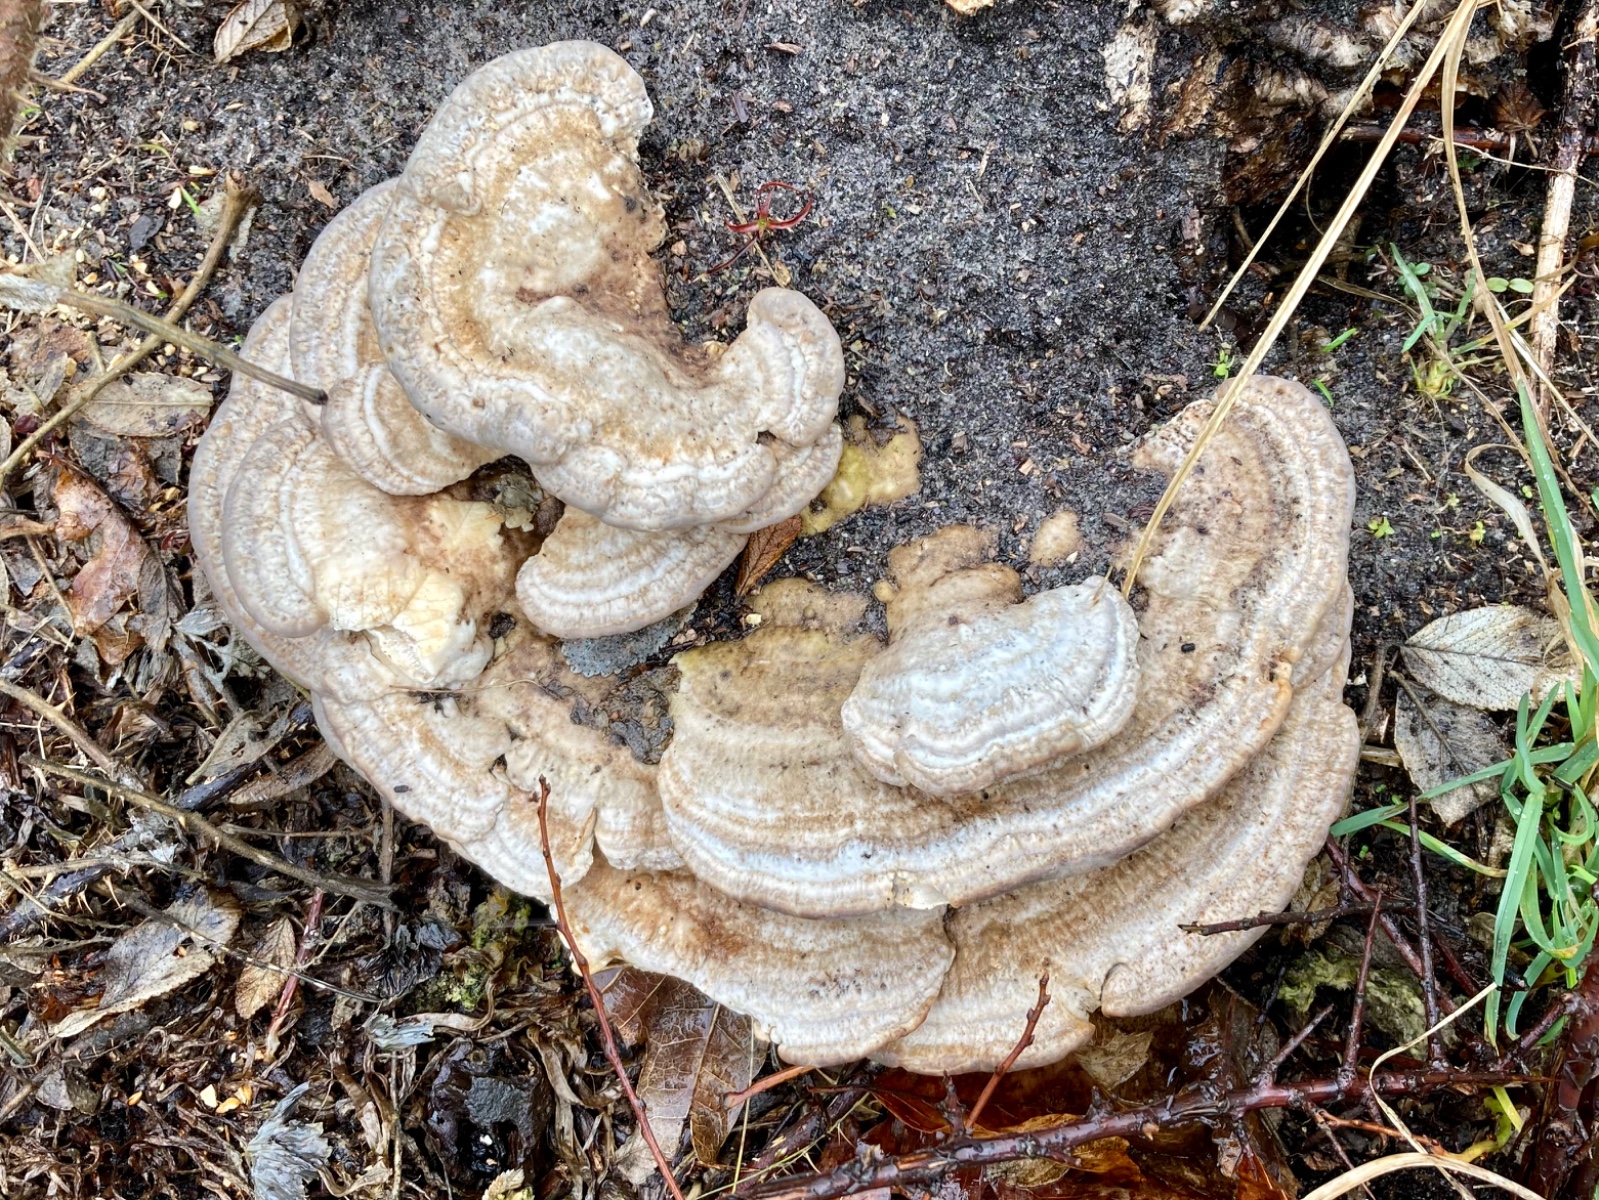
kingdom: Fungi
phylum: Basidiomycota
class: Agaricomycetes
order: Polyporales
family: Polyporaceae
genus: Trametes
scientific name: Trametes gibbosa
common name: puklet læderporesvamp
